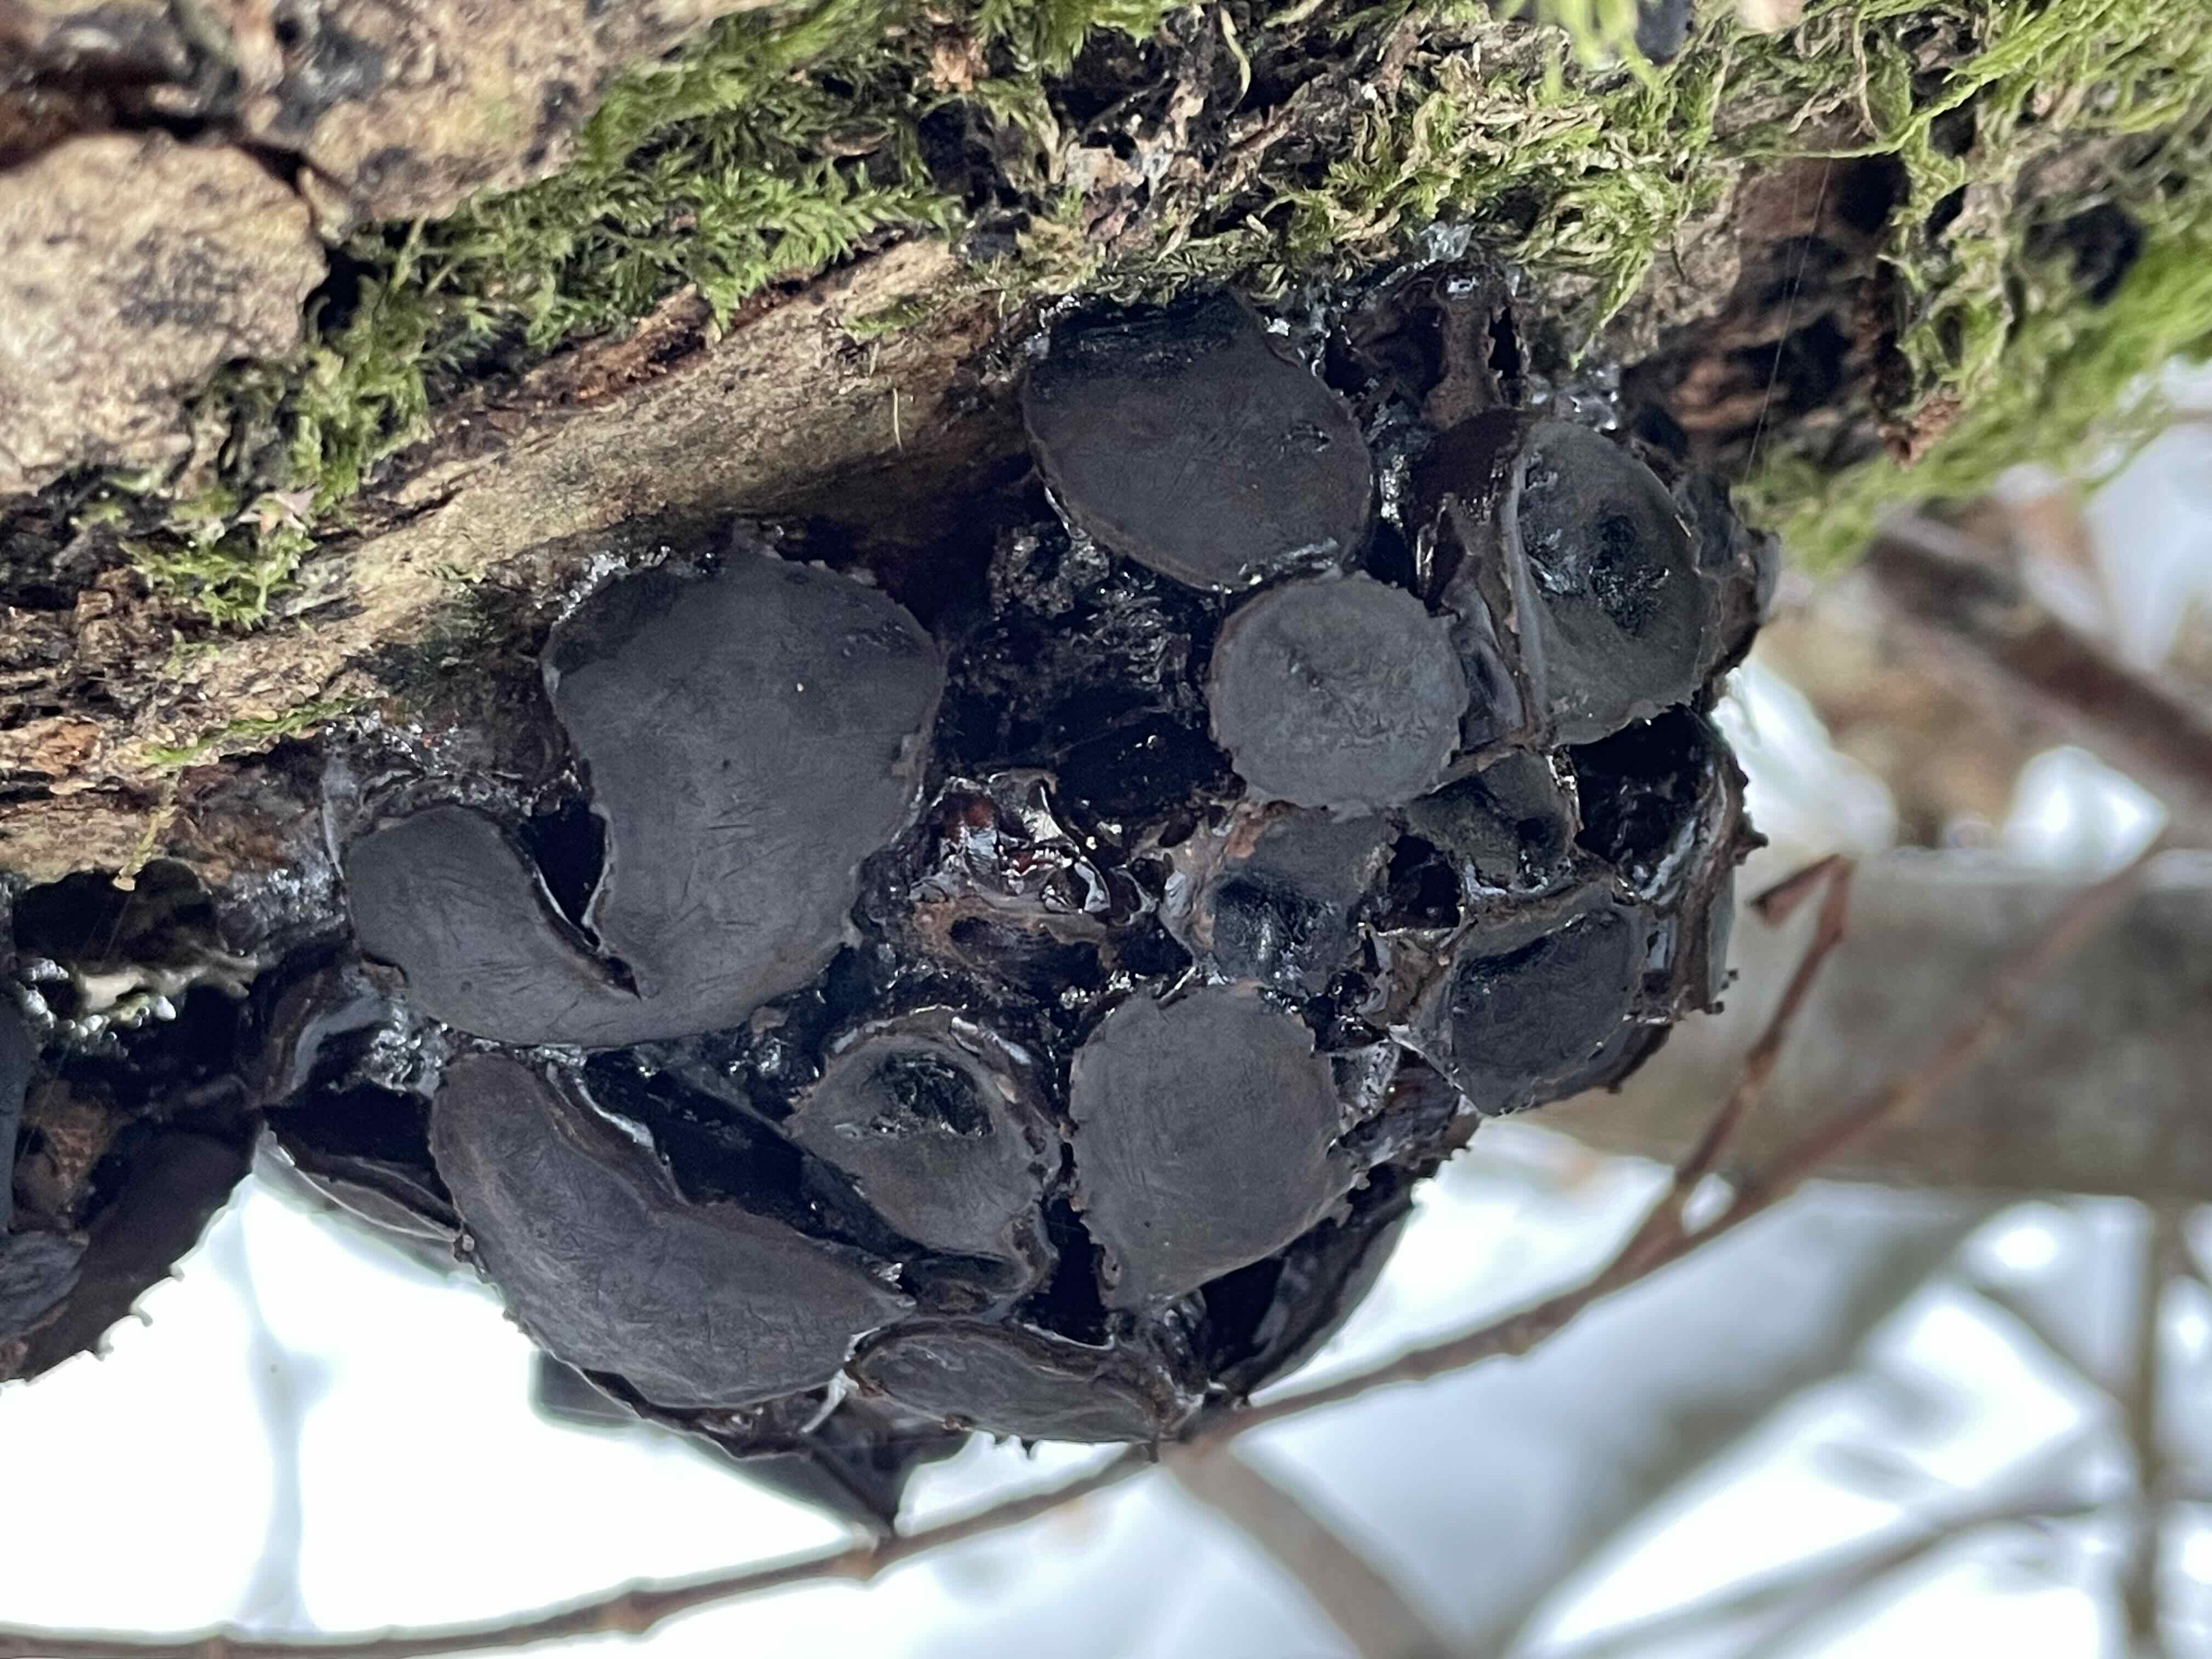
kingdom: Fungi
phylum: Ascomycota
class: Leotiomycetes
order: Phacidiales
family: Phacidiaceae
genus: Bulgaria
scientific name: Bulgaria inquinans
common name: afsmittende topsvamp
